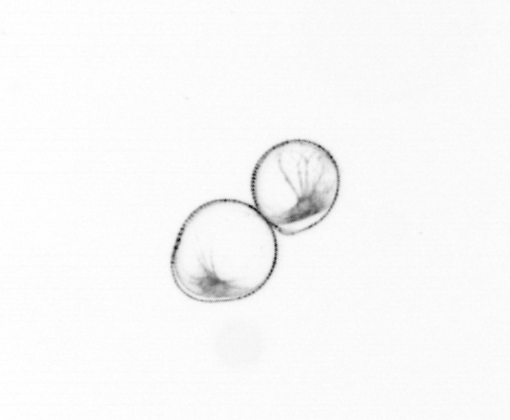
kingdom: Chromista
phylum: Myzozoa
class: Dinophyceae
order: Noctilucales
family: Noctilucaceae
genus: Noctiluca
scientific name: Noctiluca scintillans
